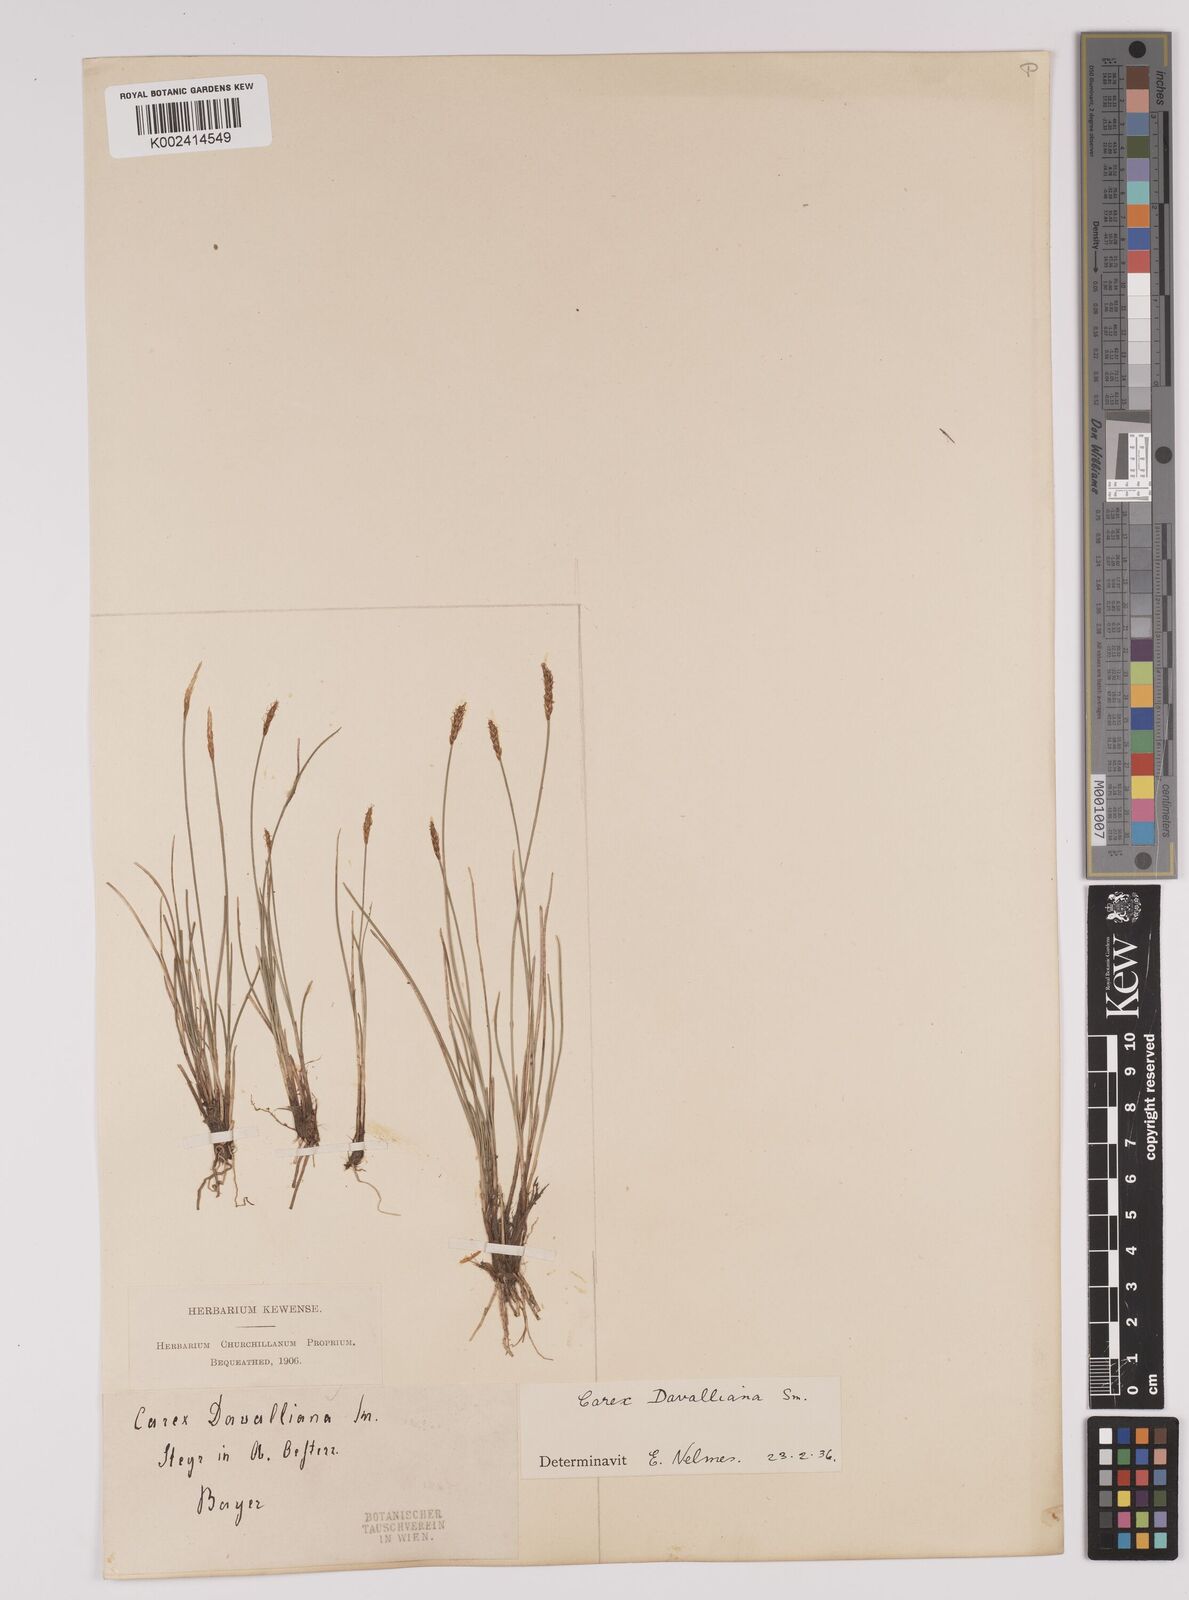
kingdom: Plantae
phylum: Tracheophyta
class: Liliopsida
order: Poales
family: Cyperaceae
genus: Carex
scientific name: Carex davalliana
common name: Davall's sedge
